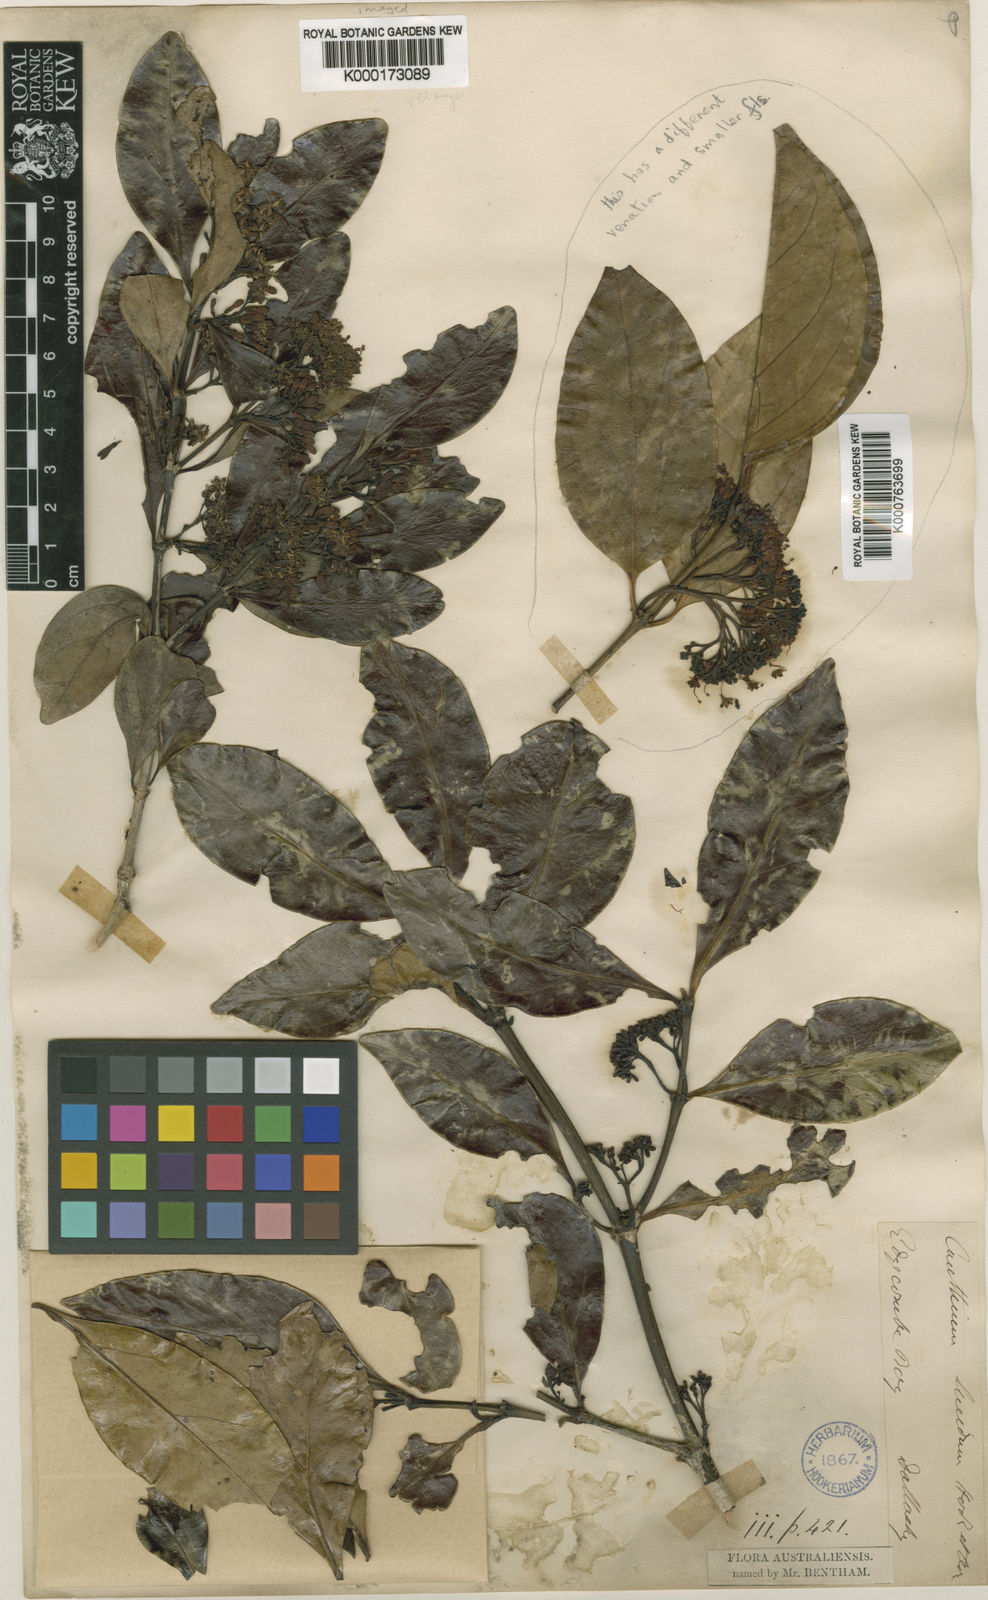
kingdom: Plantae
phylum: Tracheophyta
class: Magnoliopsida
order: Gentianales
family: Rubiaceae
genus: Psydrax
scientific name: Psydrax odoratus
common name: Alahe'e
